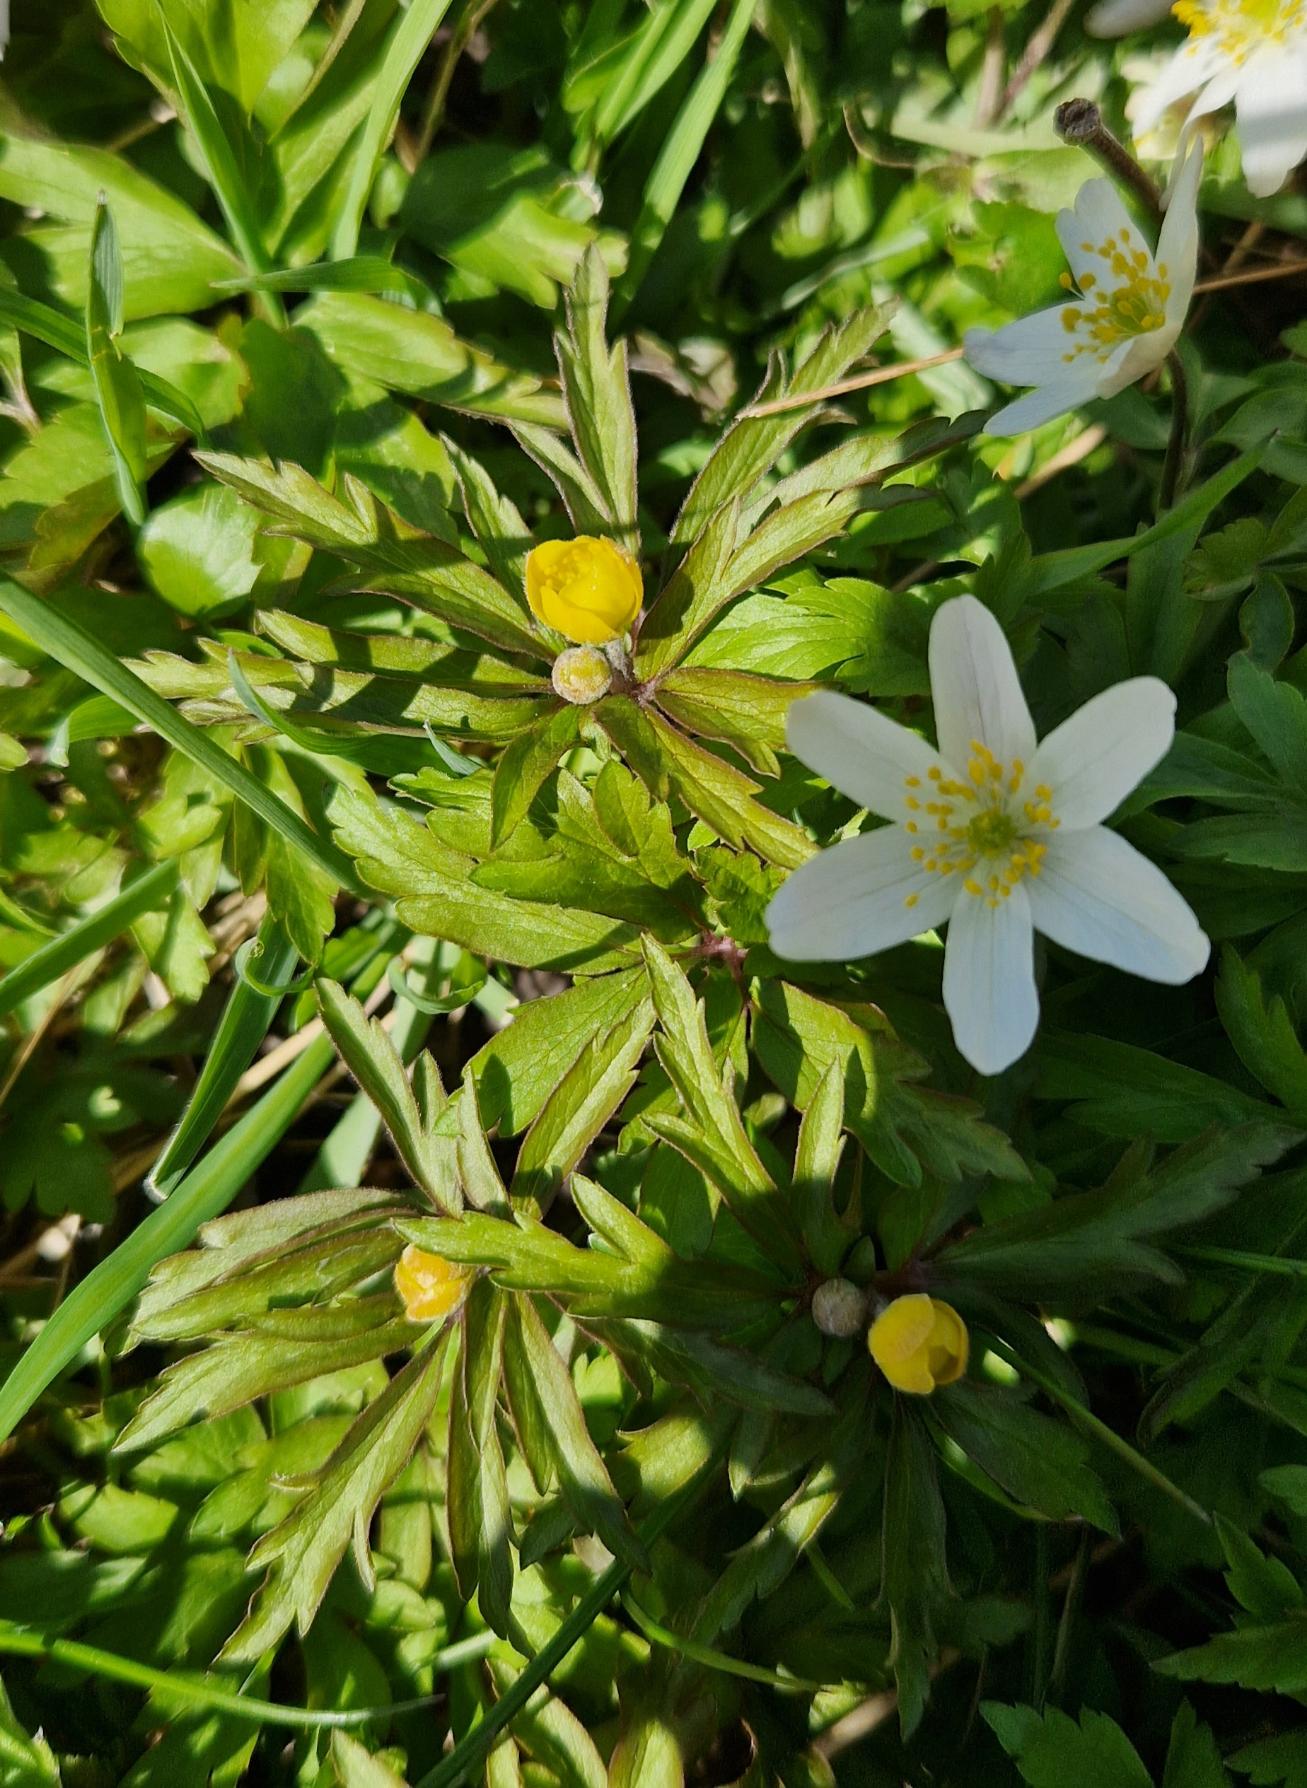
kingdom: Plantae
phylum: Tracheophyta
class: Magnoliopsida
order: Ranunculales
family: Ranunculaceae
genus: Anemone
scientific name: Anemone ranunculoides
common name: Gul anemone
